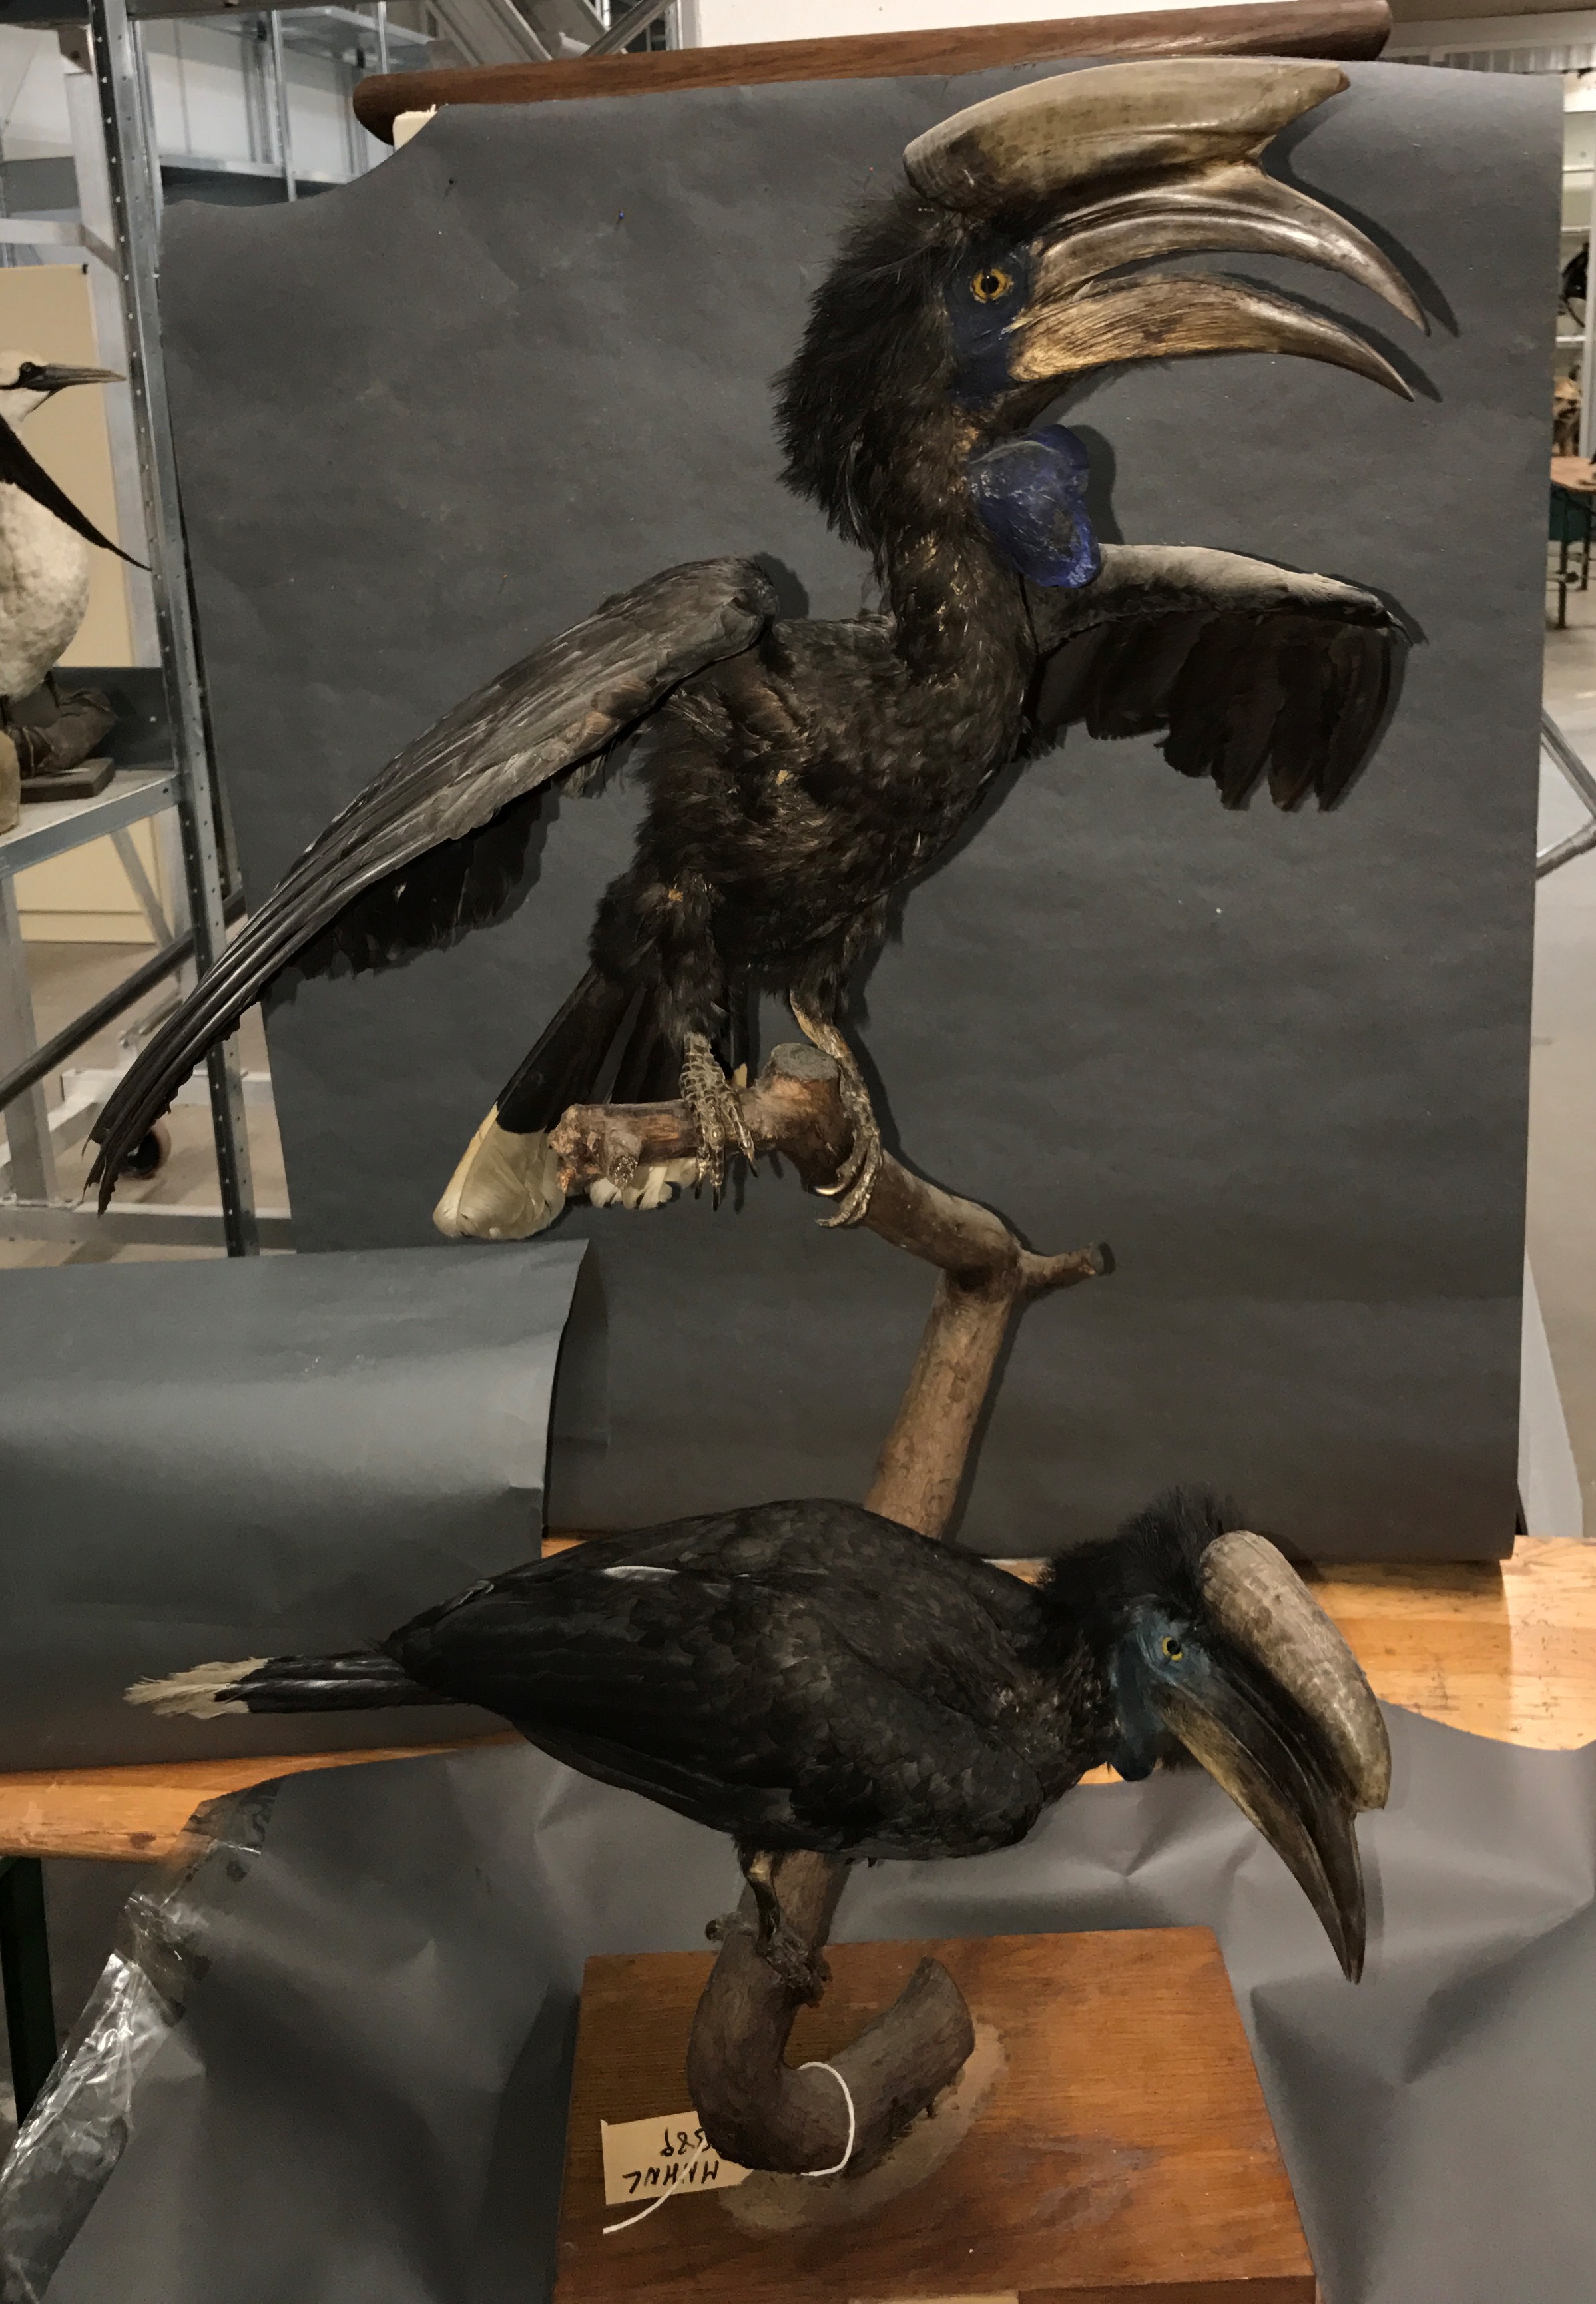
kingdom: Animalia
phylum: Chordata
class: Aves
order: Bucerotiformes
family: Bucerotidae
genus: Ceratogymna
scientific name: Ceratogymna atrata
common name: Black-casqued hornbill
